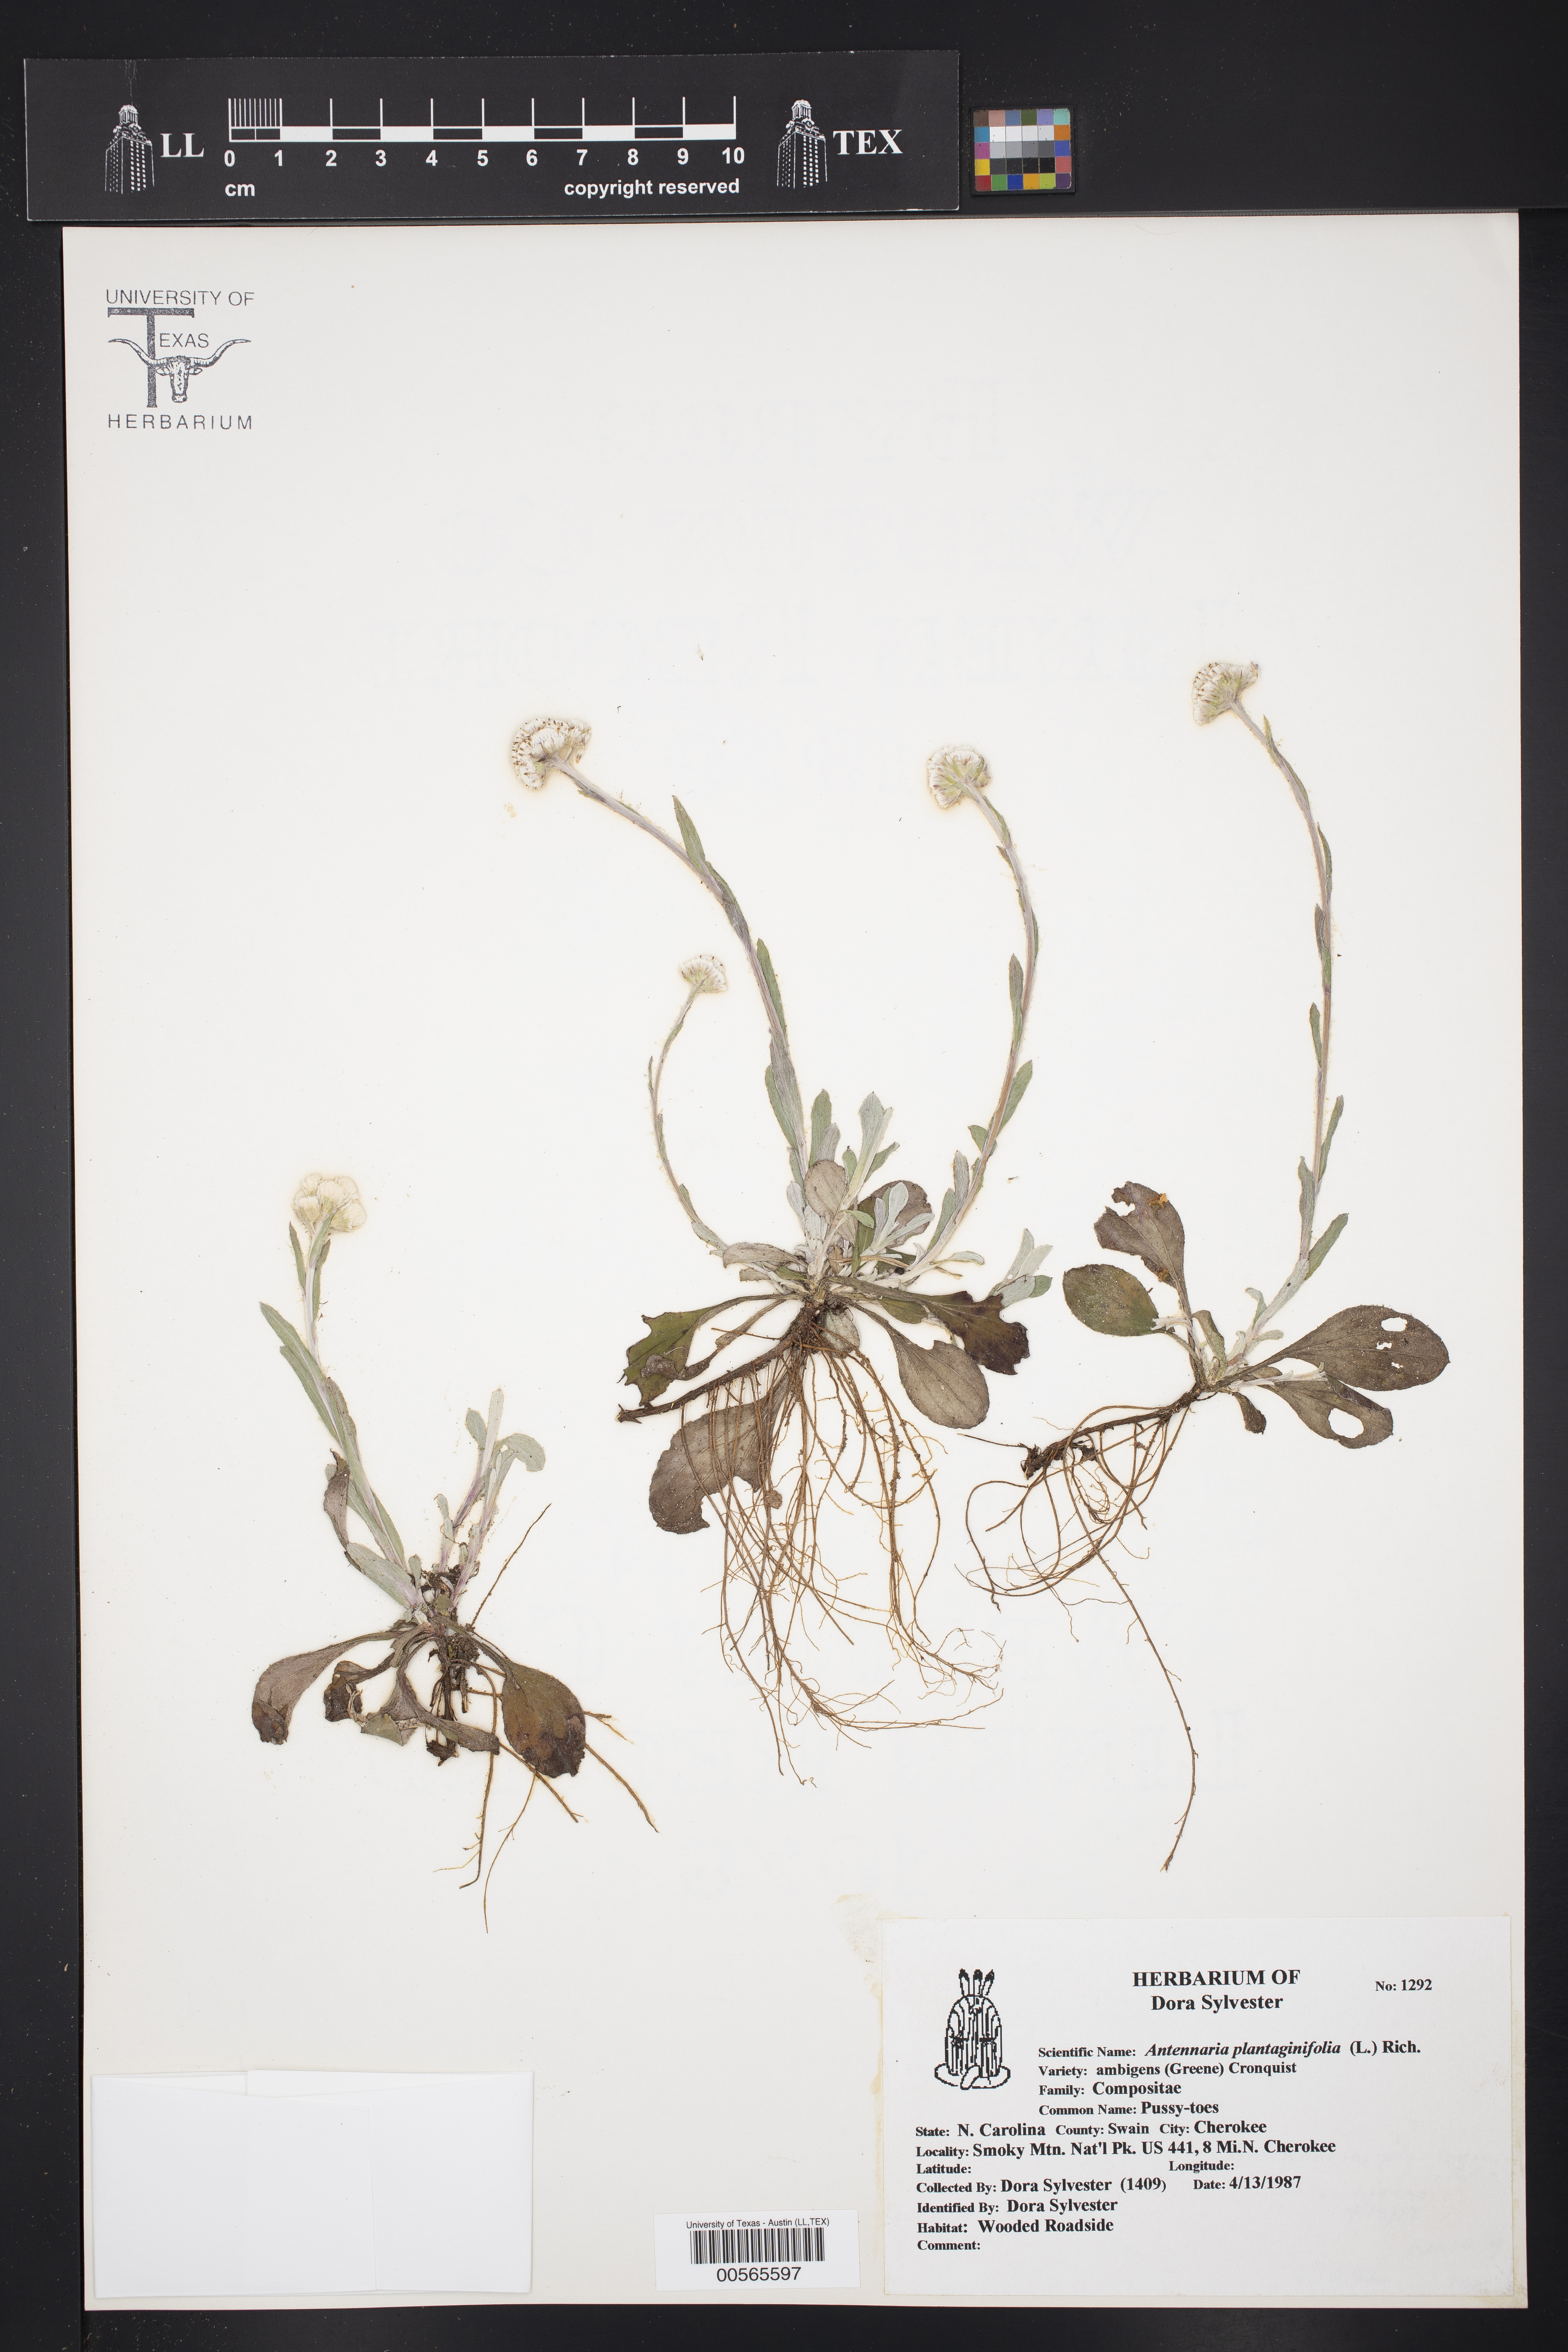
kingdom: Plantae
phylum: Tracheophyta
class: Magnoliopsida
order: Asterales
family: Asteraceae
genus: Antennaria
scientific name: Antennaria parlinii
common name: Parlin's pussytoes
